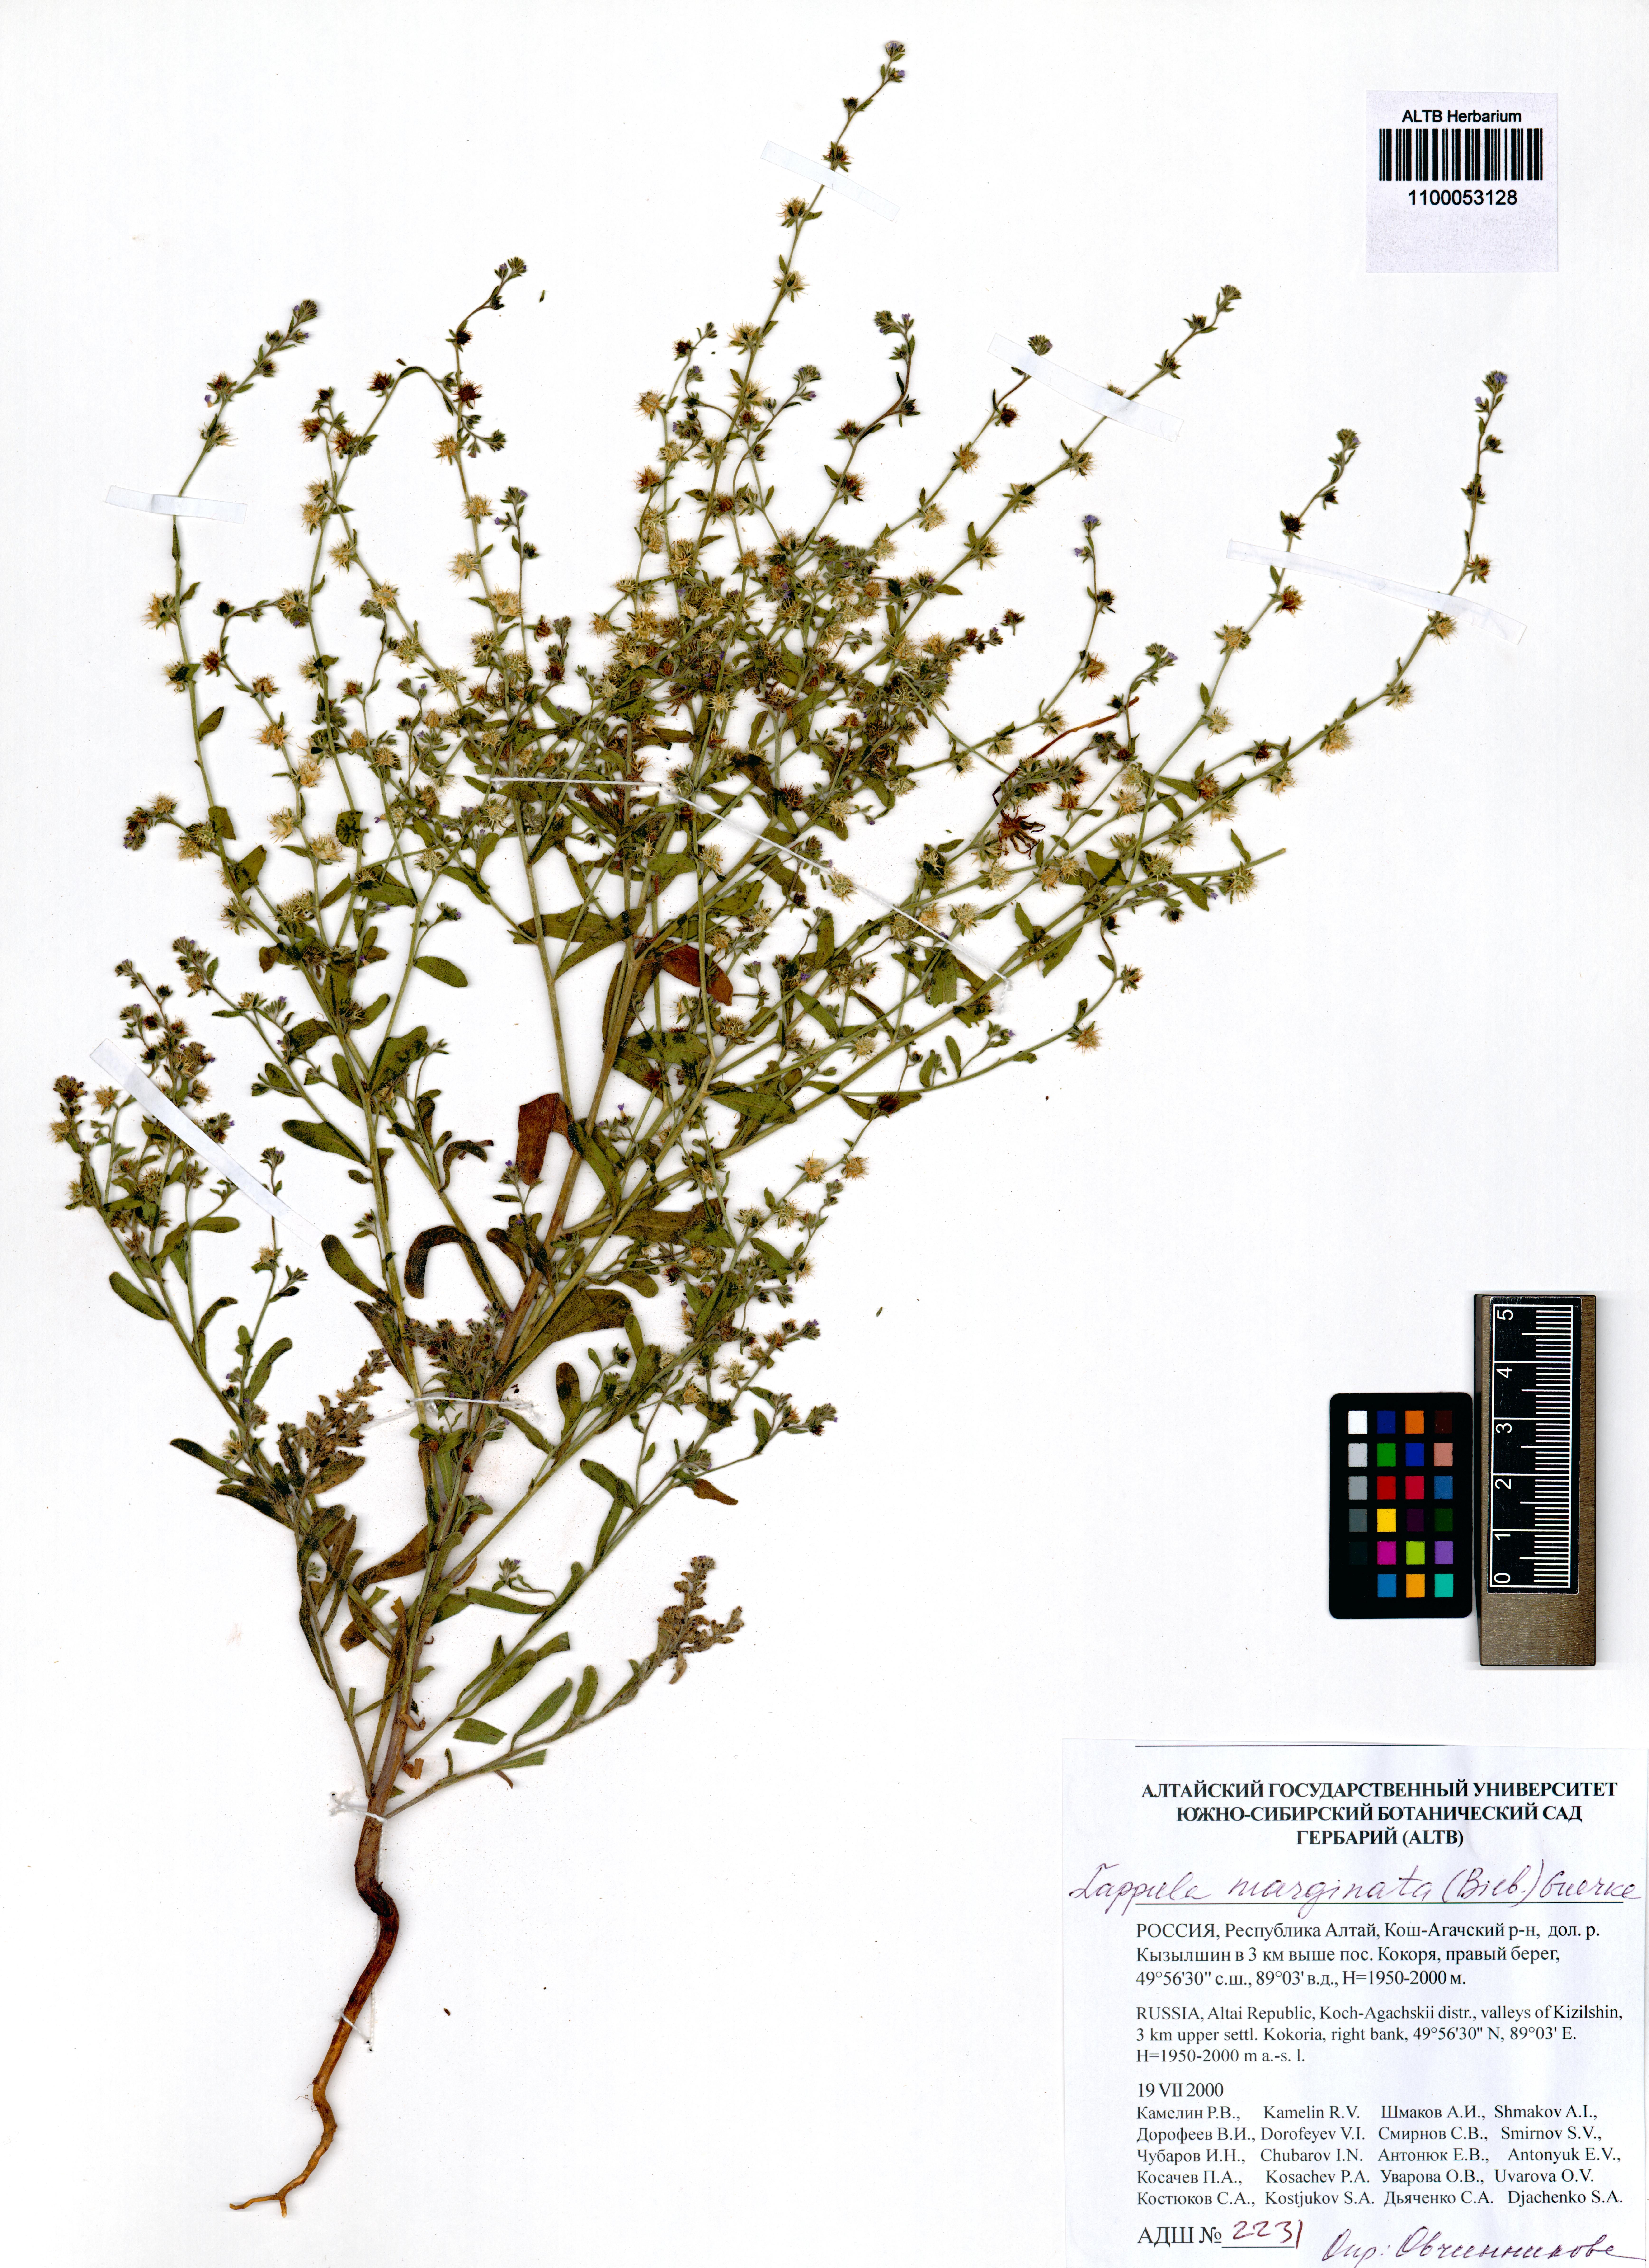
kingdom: Plantae
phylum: Tracheophyta
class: Magnoliopsida
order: Boraginales
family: Boraginaceae
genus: Lappula
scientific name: Lappula marginata
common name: Margined stickseed
